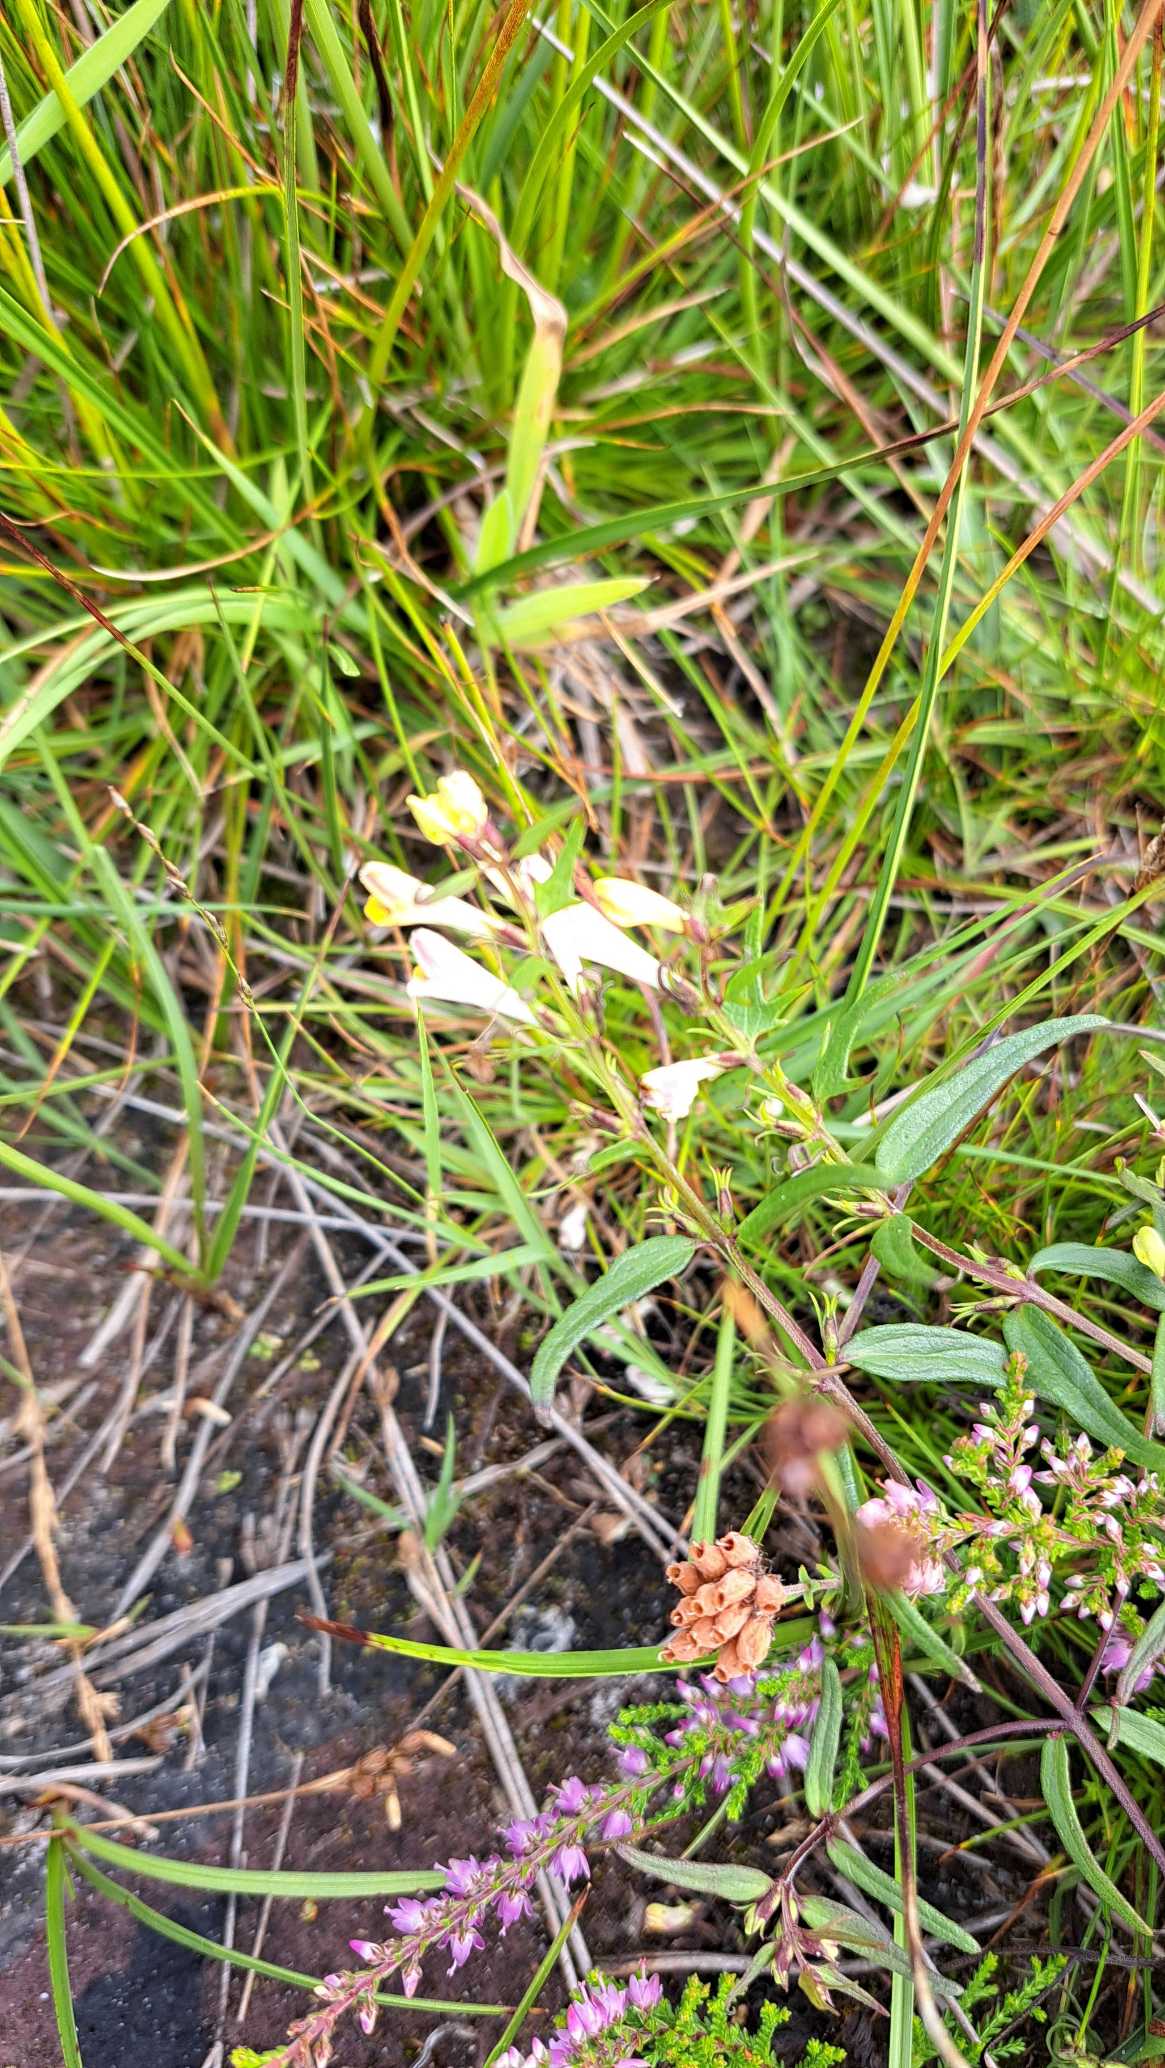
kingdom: Plantae
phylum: Tracheophyta
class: Magnoliopsida
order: Lamiales
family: Orobanchaceae
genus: Melampyrum
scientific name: Melampyrum pratense
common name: Almindelig kohvede
